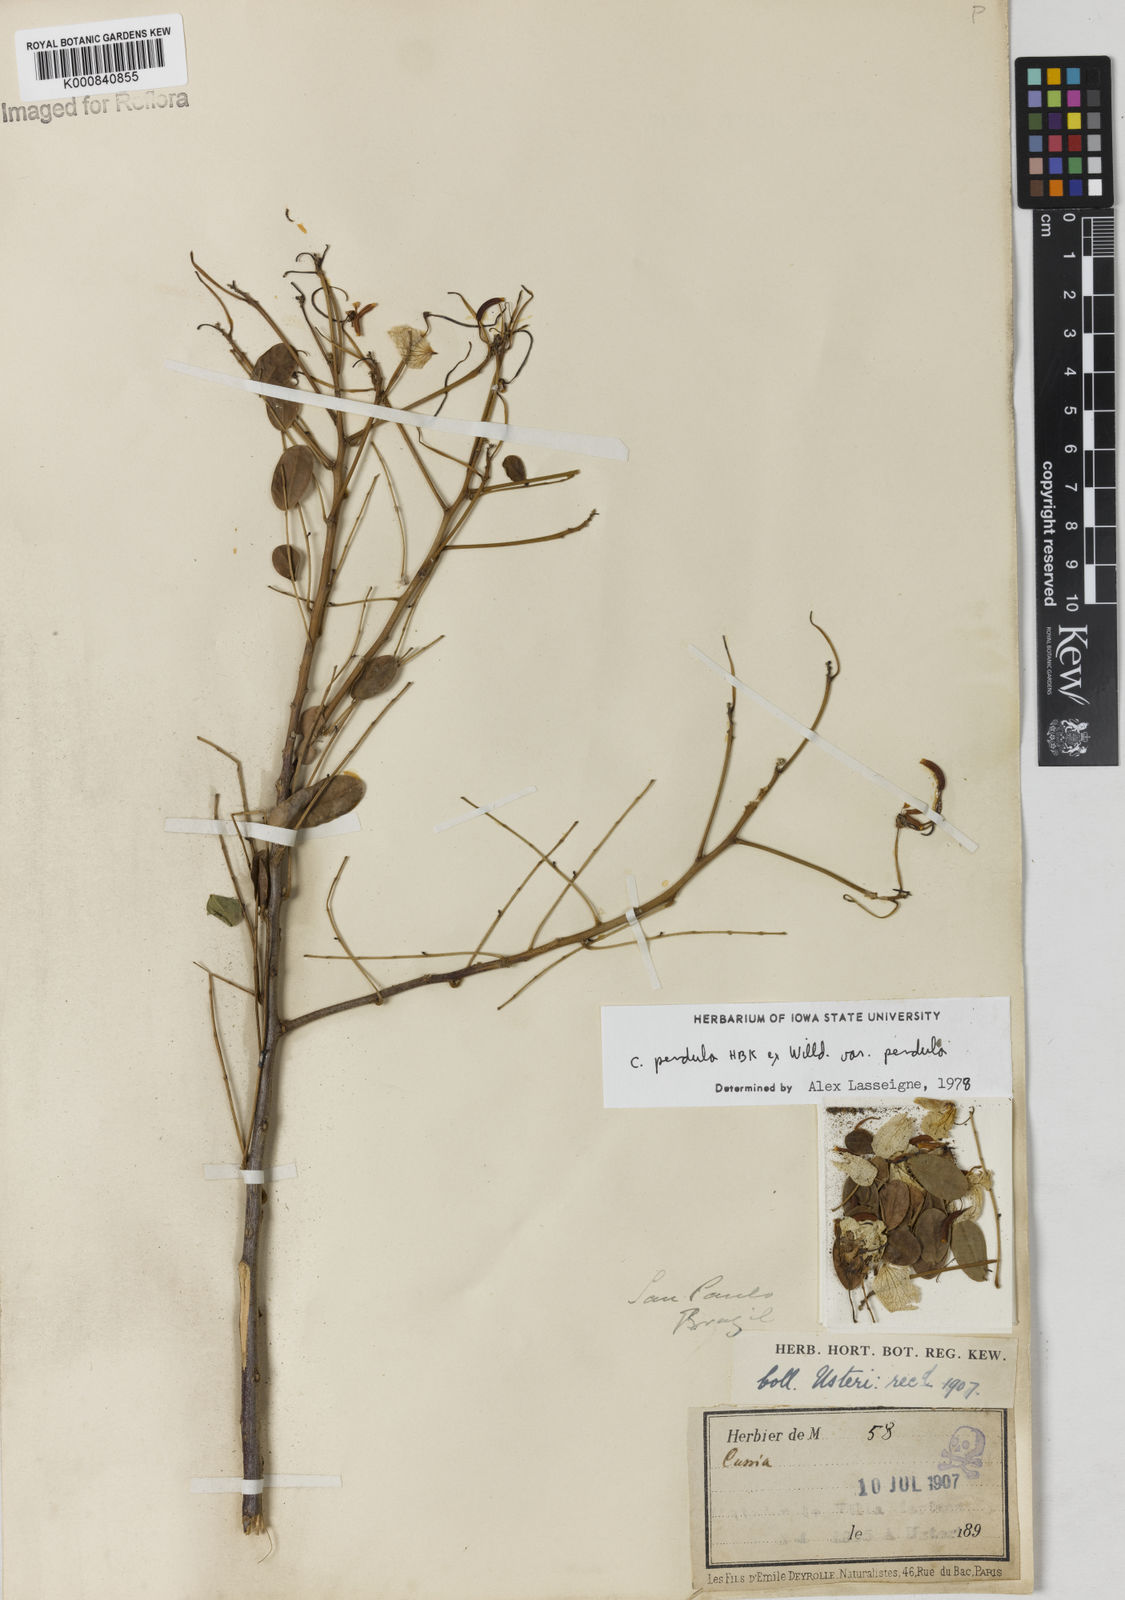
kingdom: Plantae
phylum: Tracheophyta
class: Magnoliopsida
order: Fabales
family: Fabaceae
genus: Senna
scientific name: Senna pendula
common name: Easter cassia
